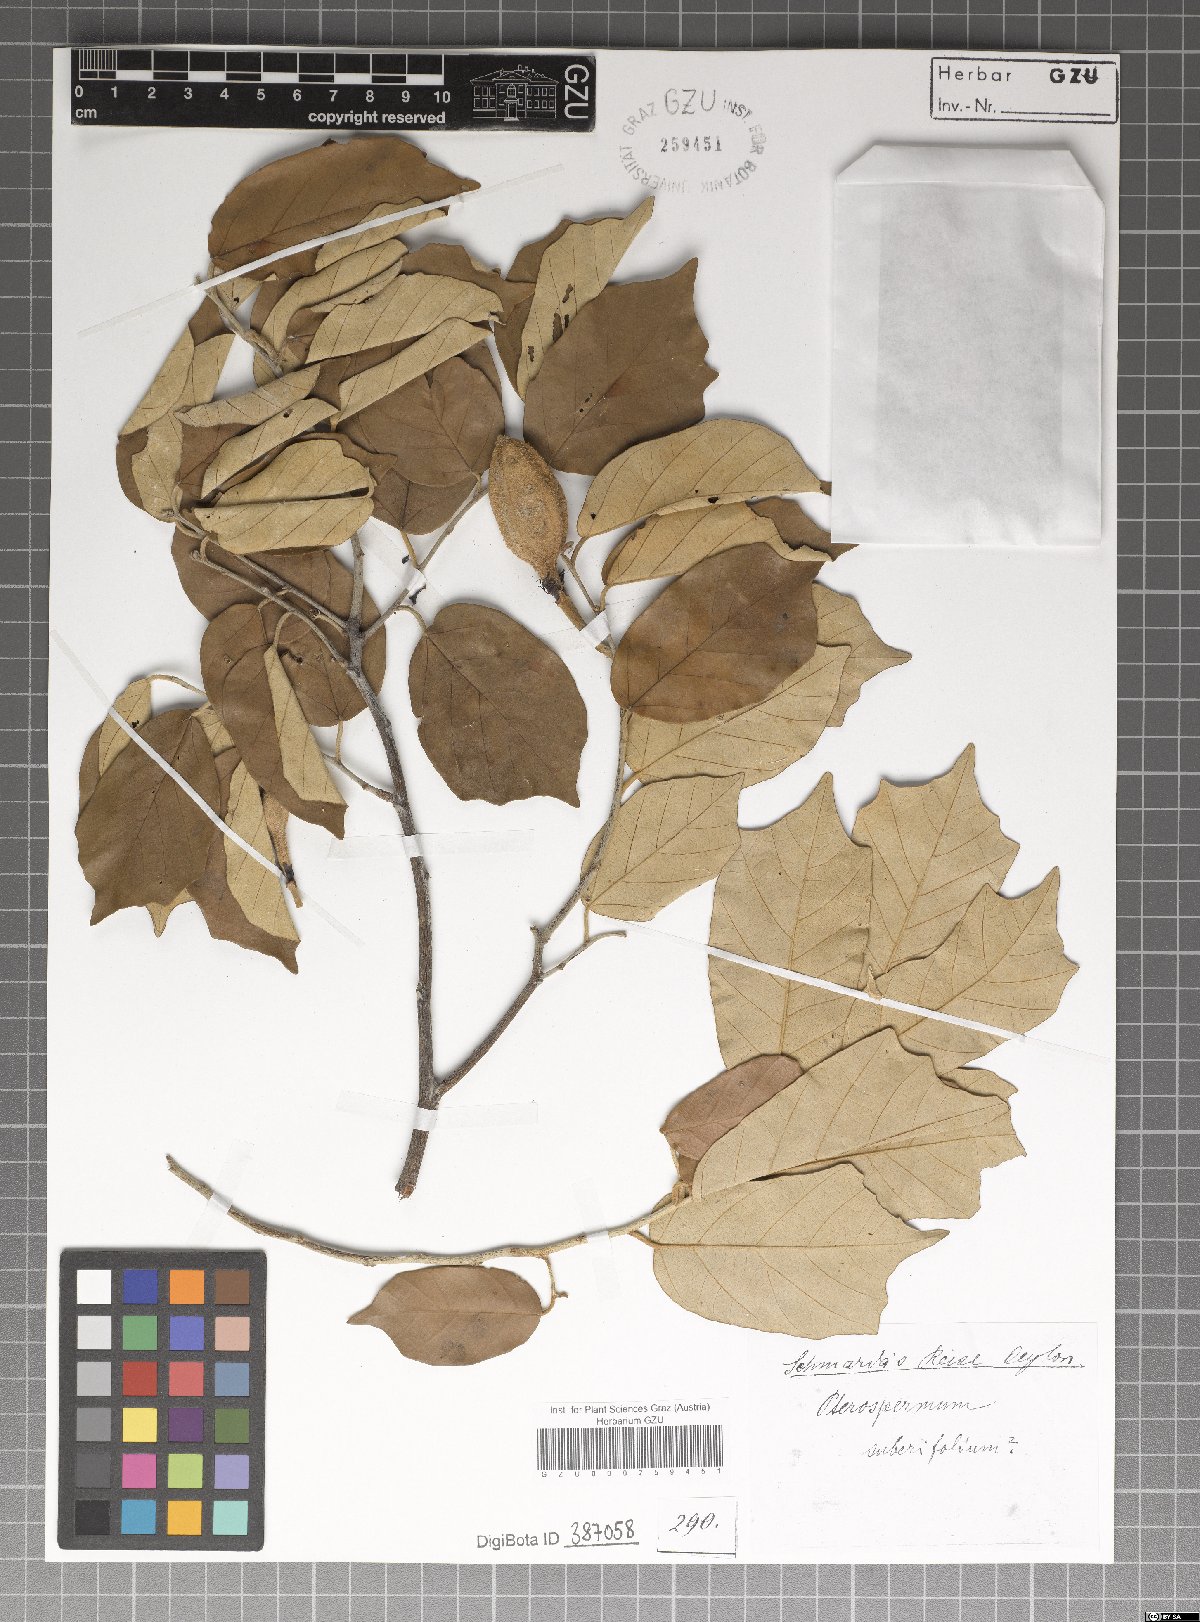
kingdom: Plantae
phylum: Tracheophyta
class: Magnoliopsida
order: Malvales
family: Malvaceae
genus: Pterospermum
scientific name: Pterospermum suberifolium
